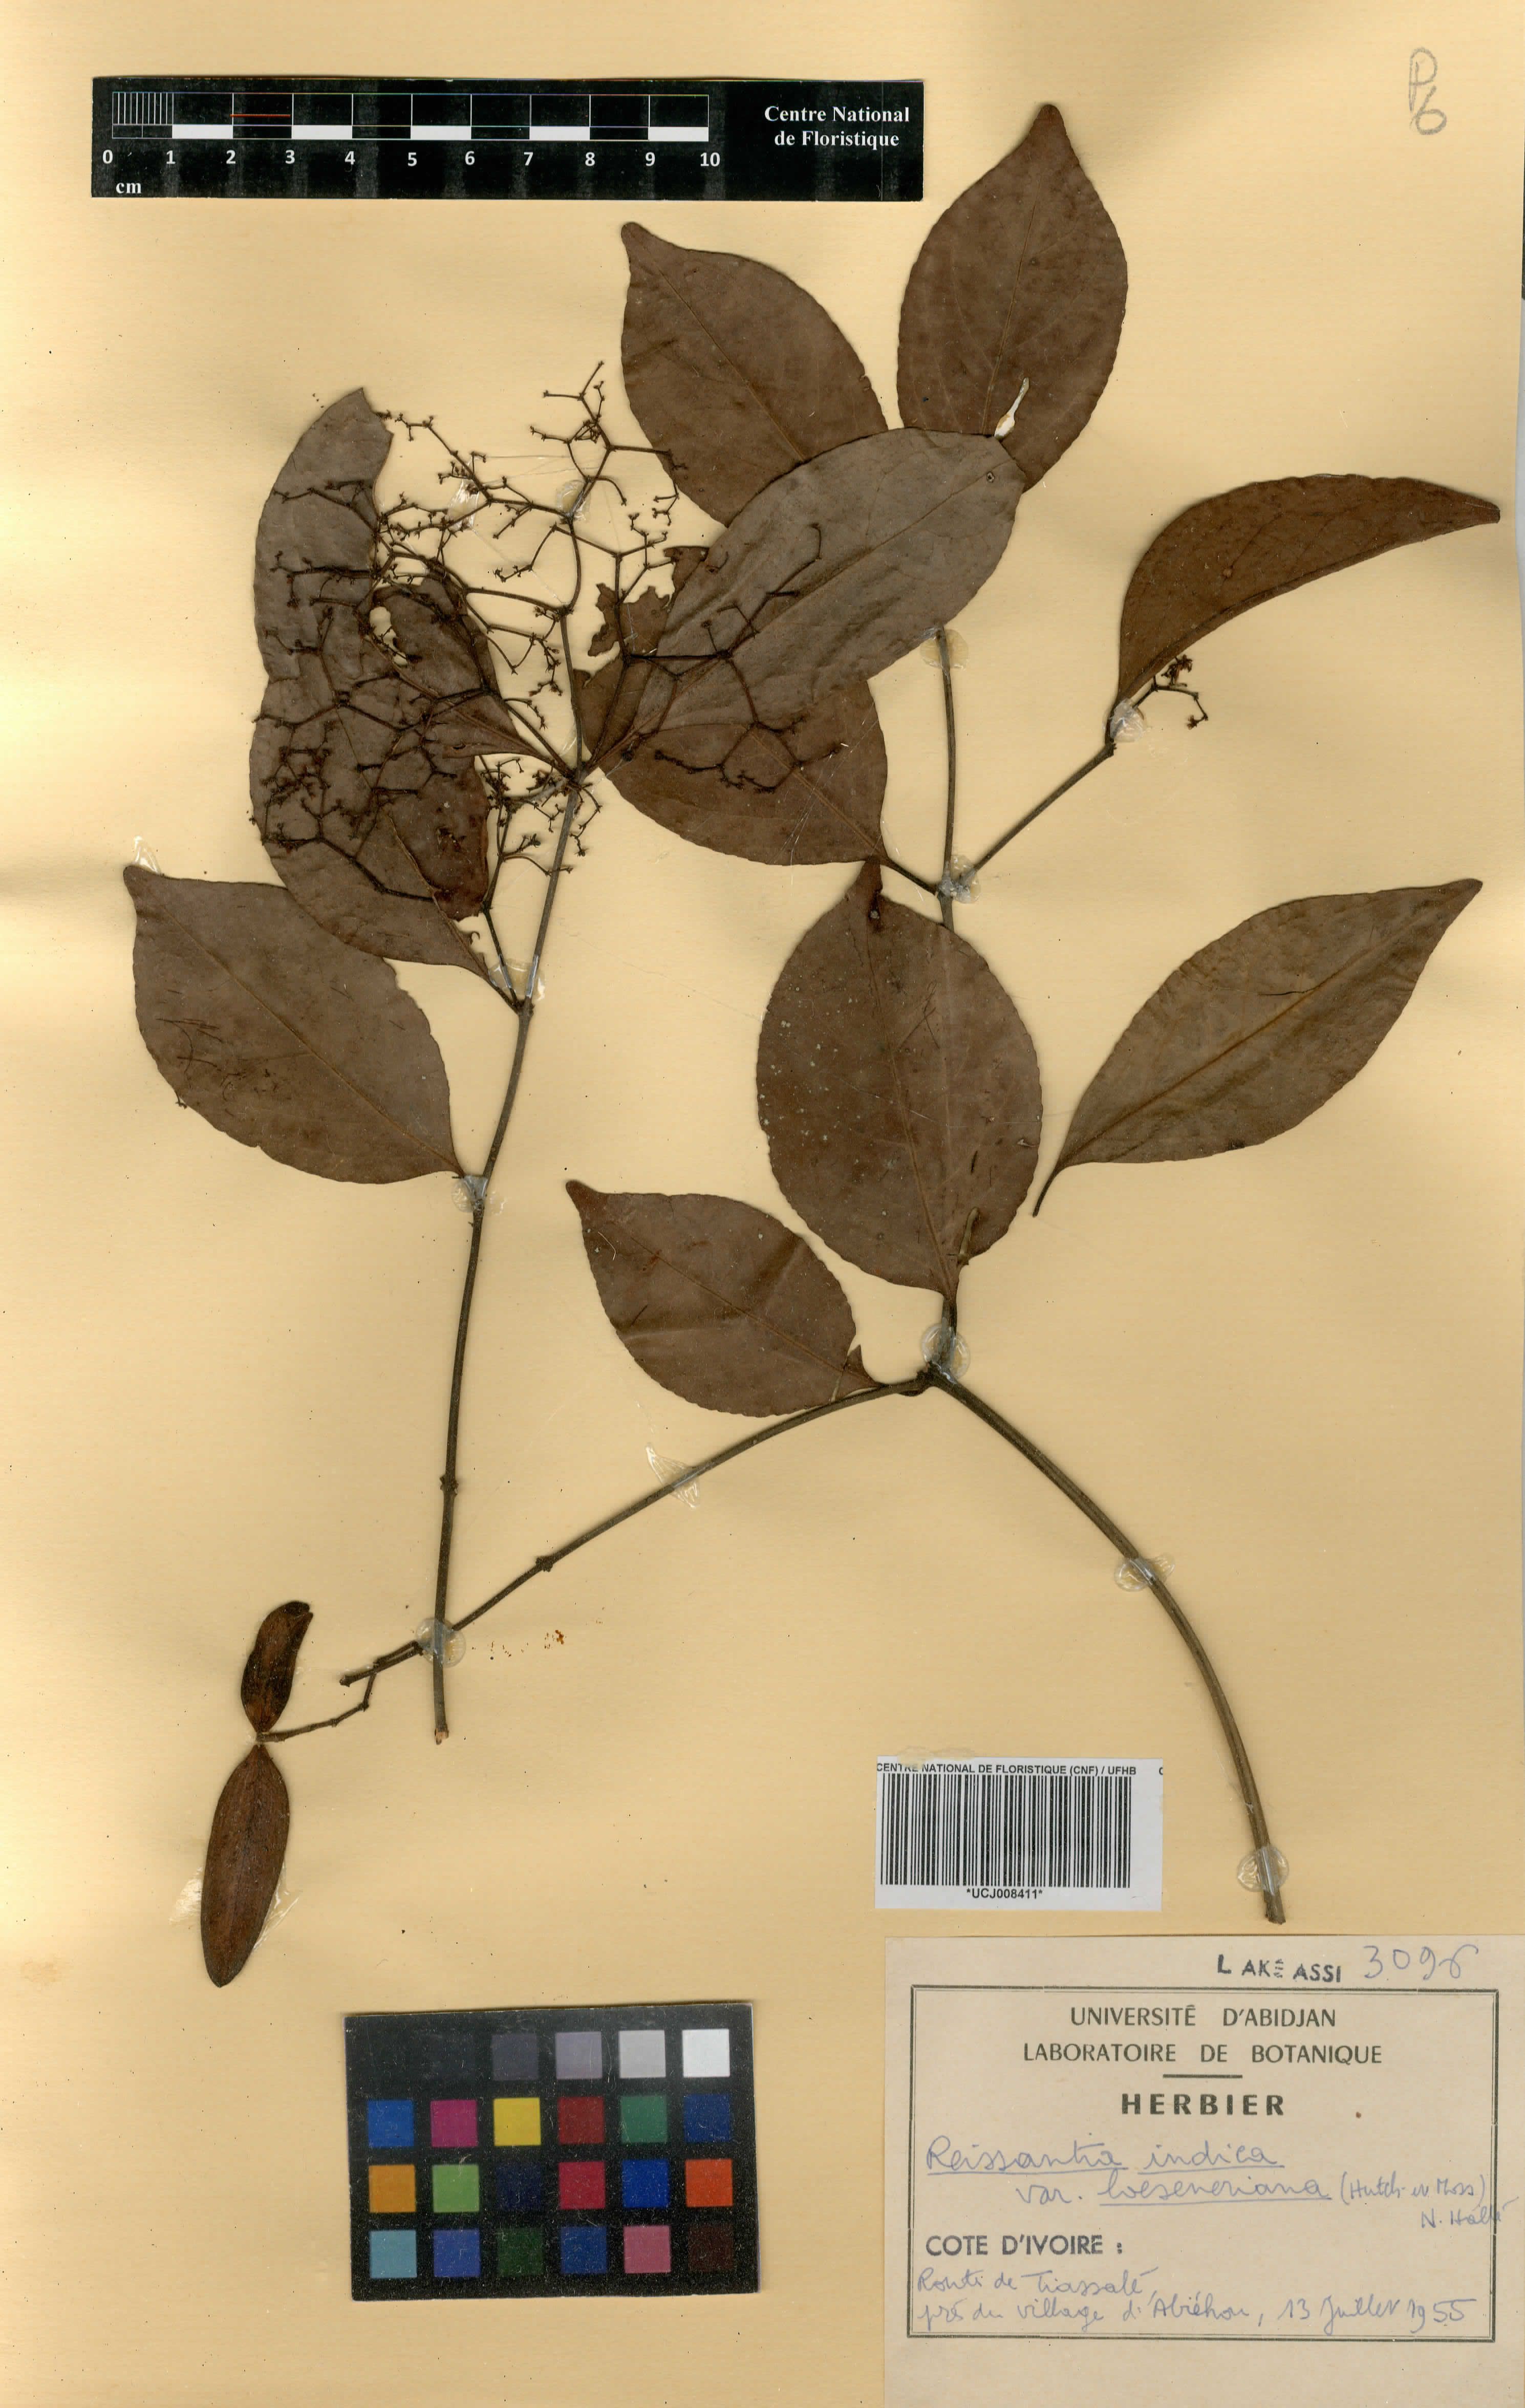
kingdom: Plantae
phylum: Tracheophyta
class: Magnoliopsida
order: Celastrales
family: Celastraceae
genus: Reissantia
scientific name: Reissantia indica
